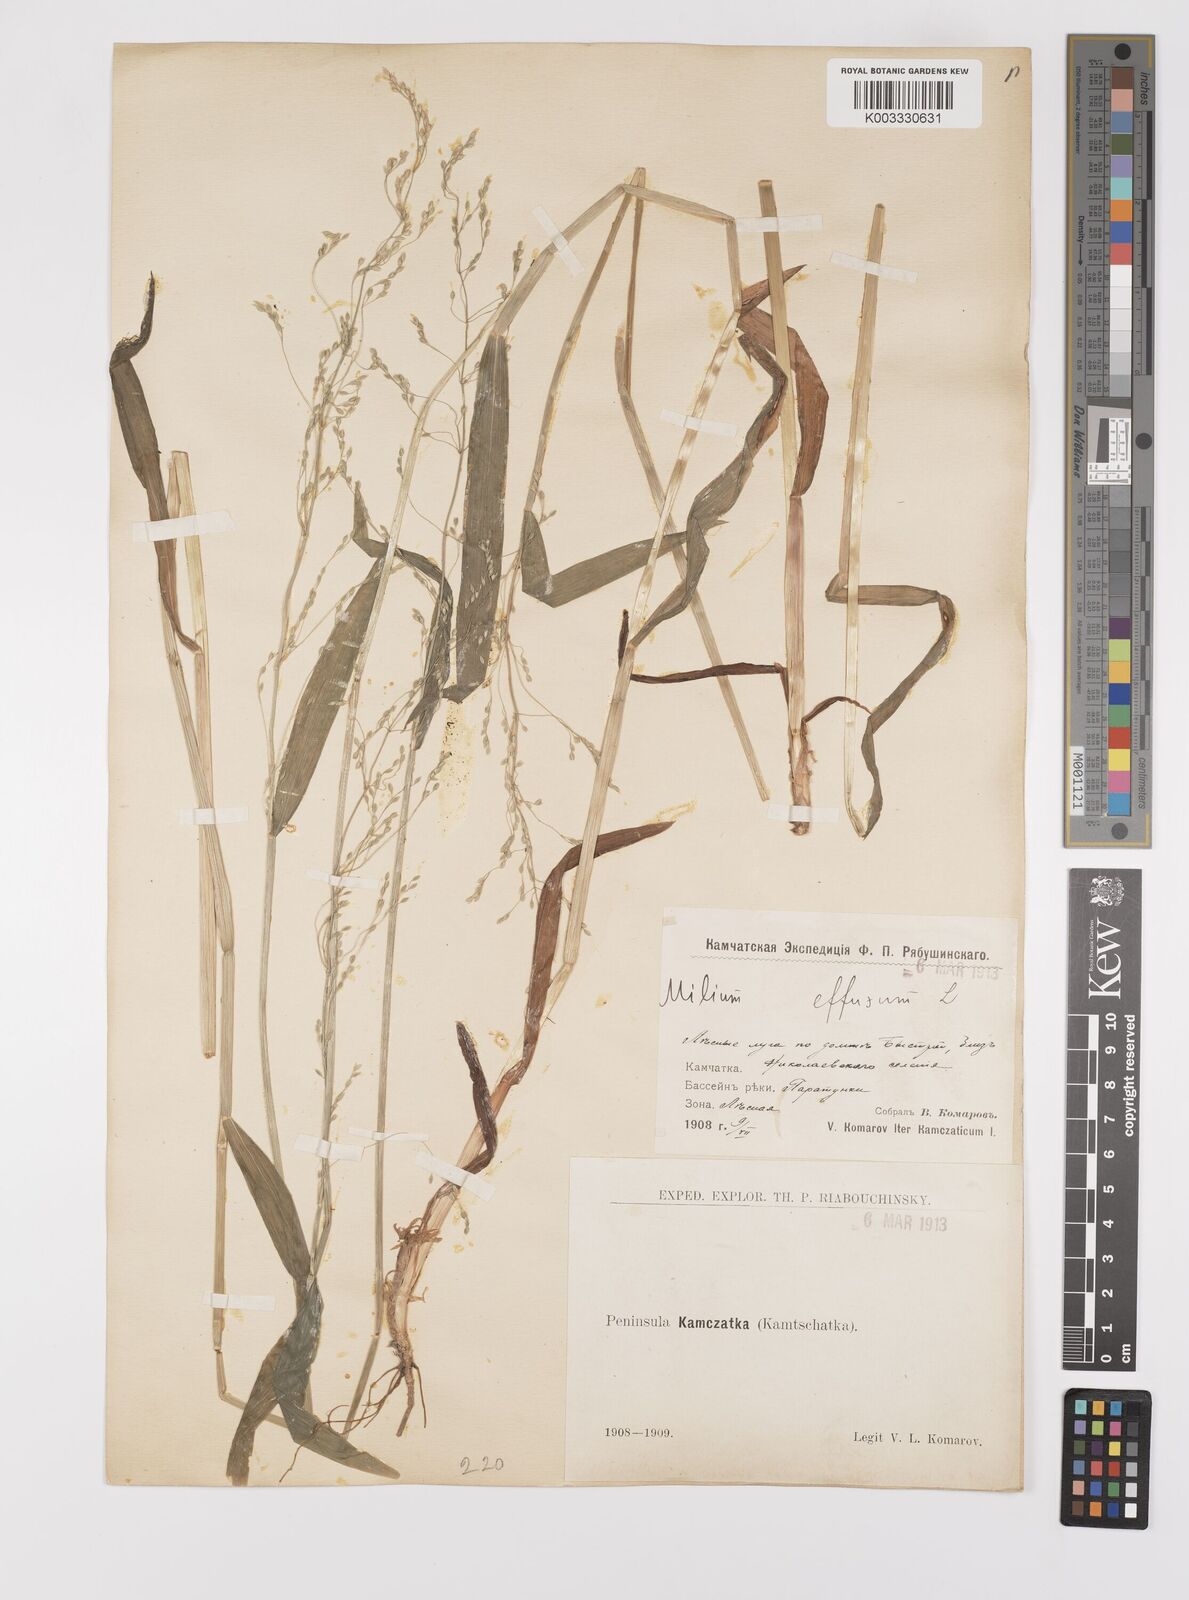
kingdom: Plantae
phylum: Tracheophyta
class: Liliopsida
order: Poales
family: Poaceae
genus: Milium
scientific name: Milium effusum
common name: Wood millet
